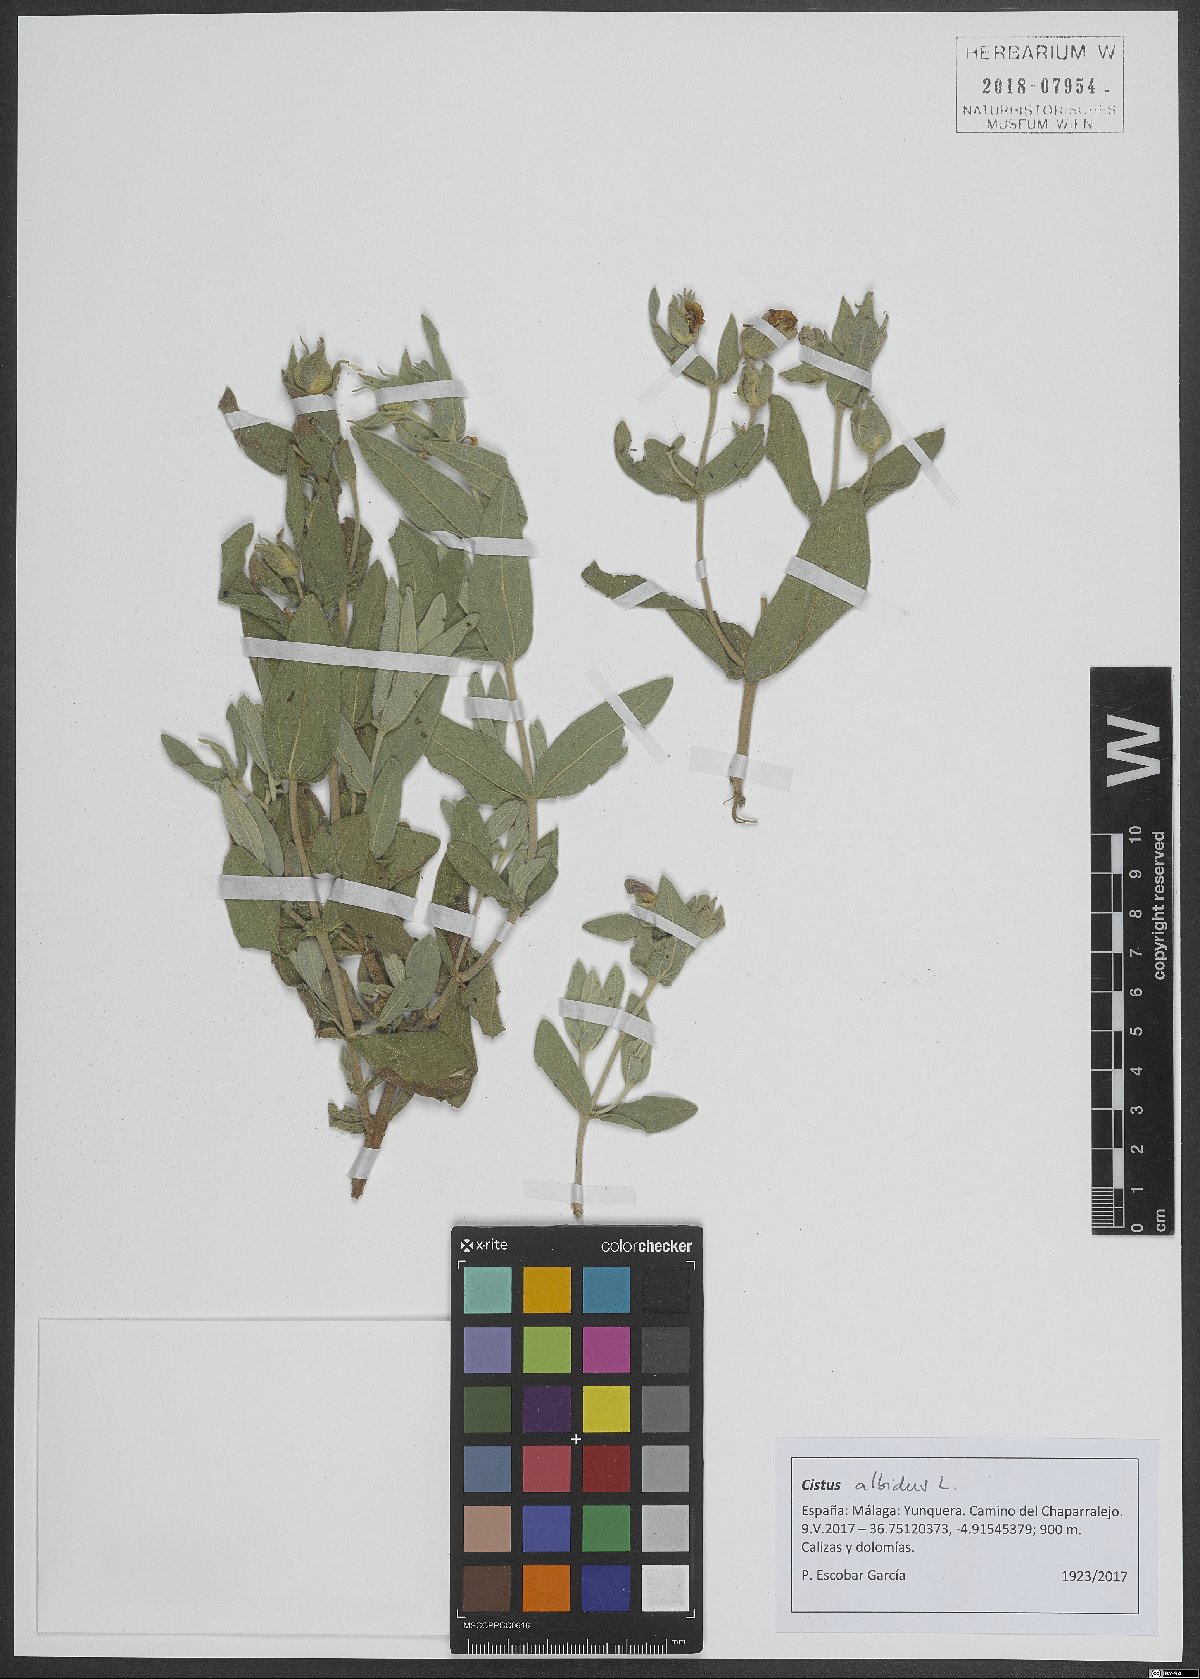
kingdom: Plantae
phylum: Tracheophyta
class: Magnoliopsida
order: Malvales
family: Cistaceae
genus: Cistus
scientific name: Cistus albidus
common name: White-leaf rock-rose
